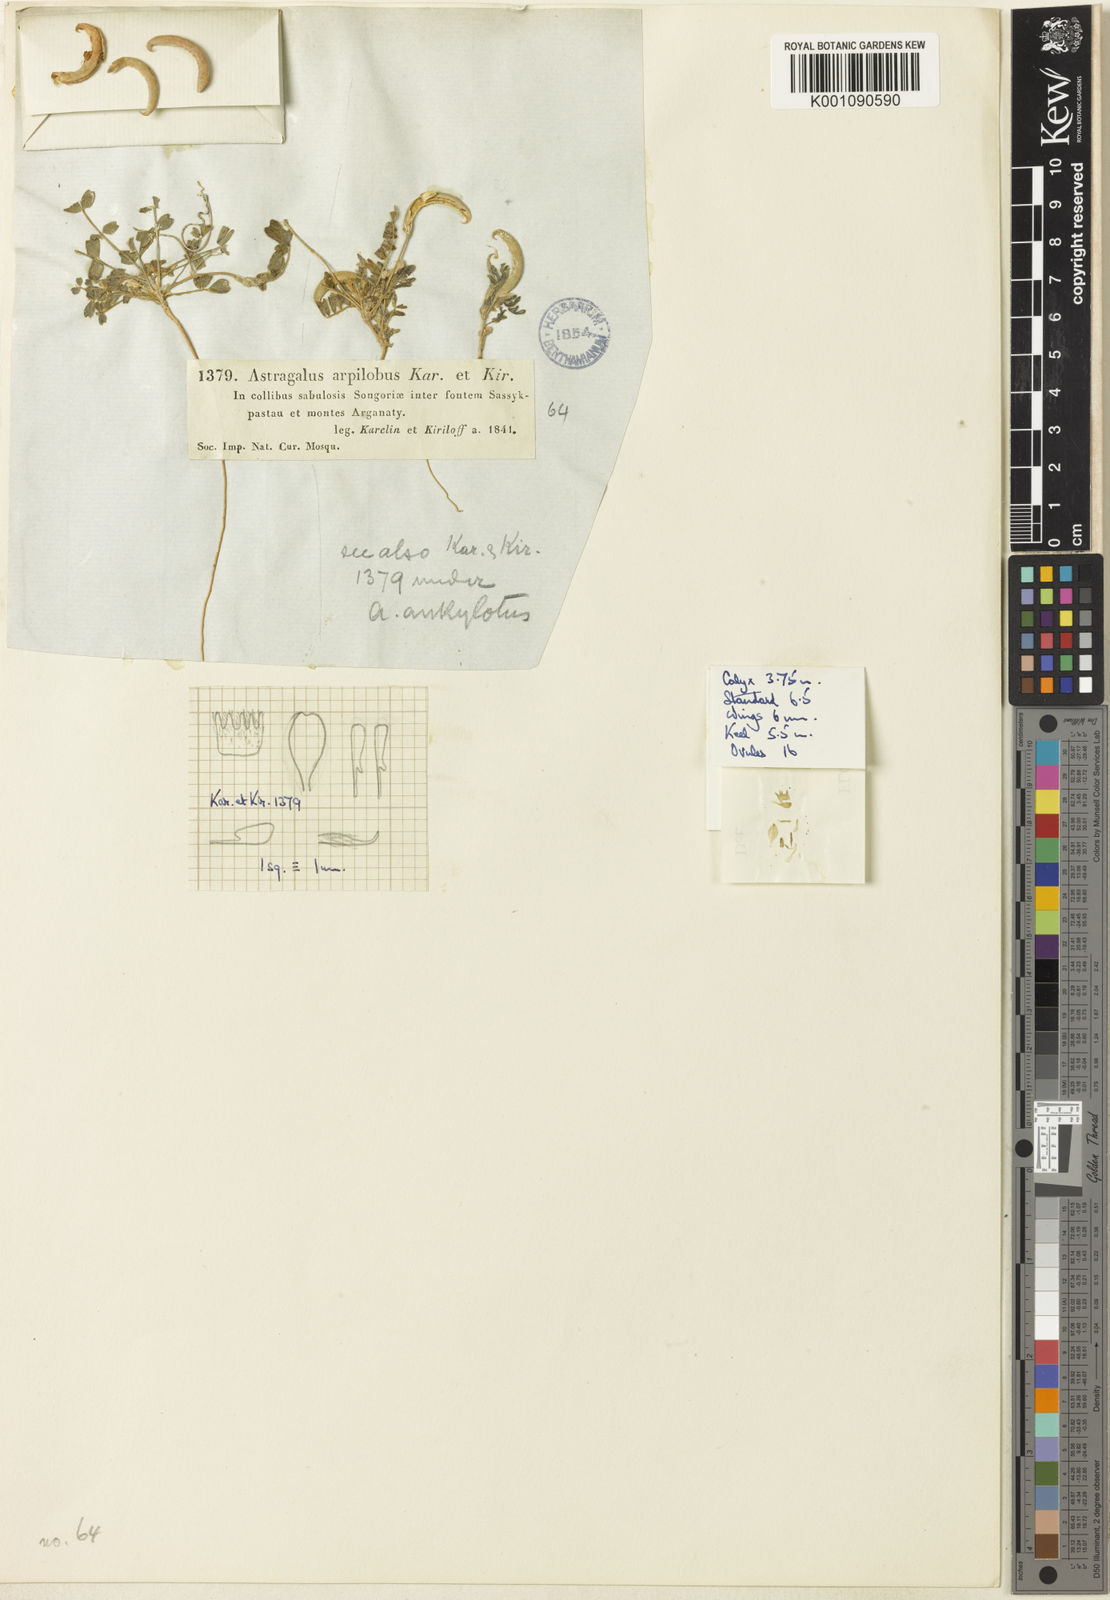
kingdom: Plantae
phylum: Tracheophyta
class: Magnoliopsida
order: Fabales
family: Fabaceae
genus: Astragalus
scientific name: Astragalus arpilobus
